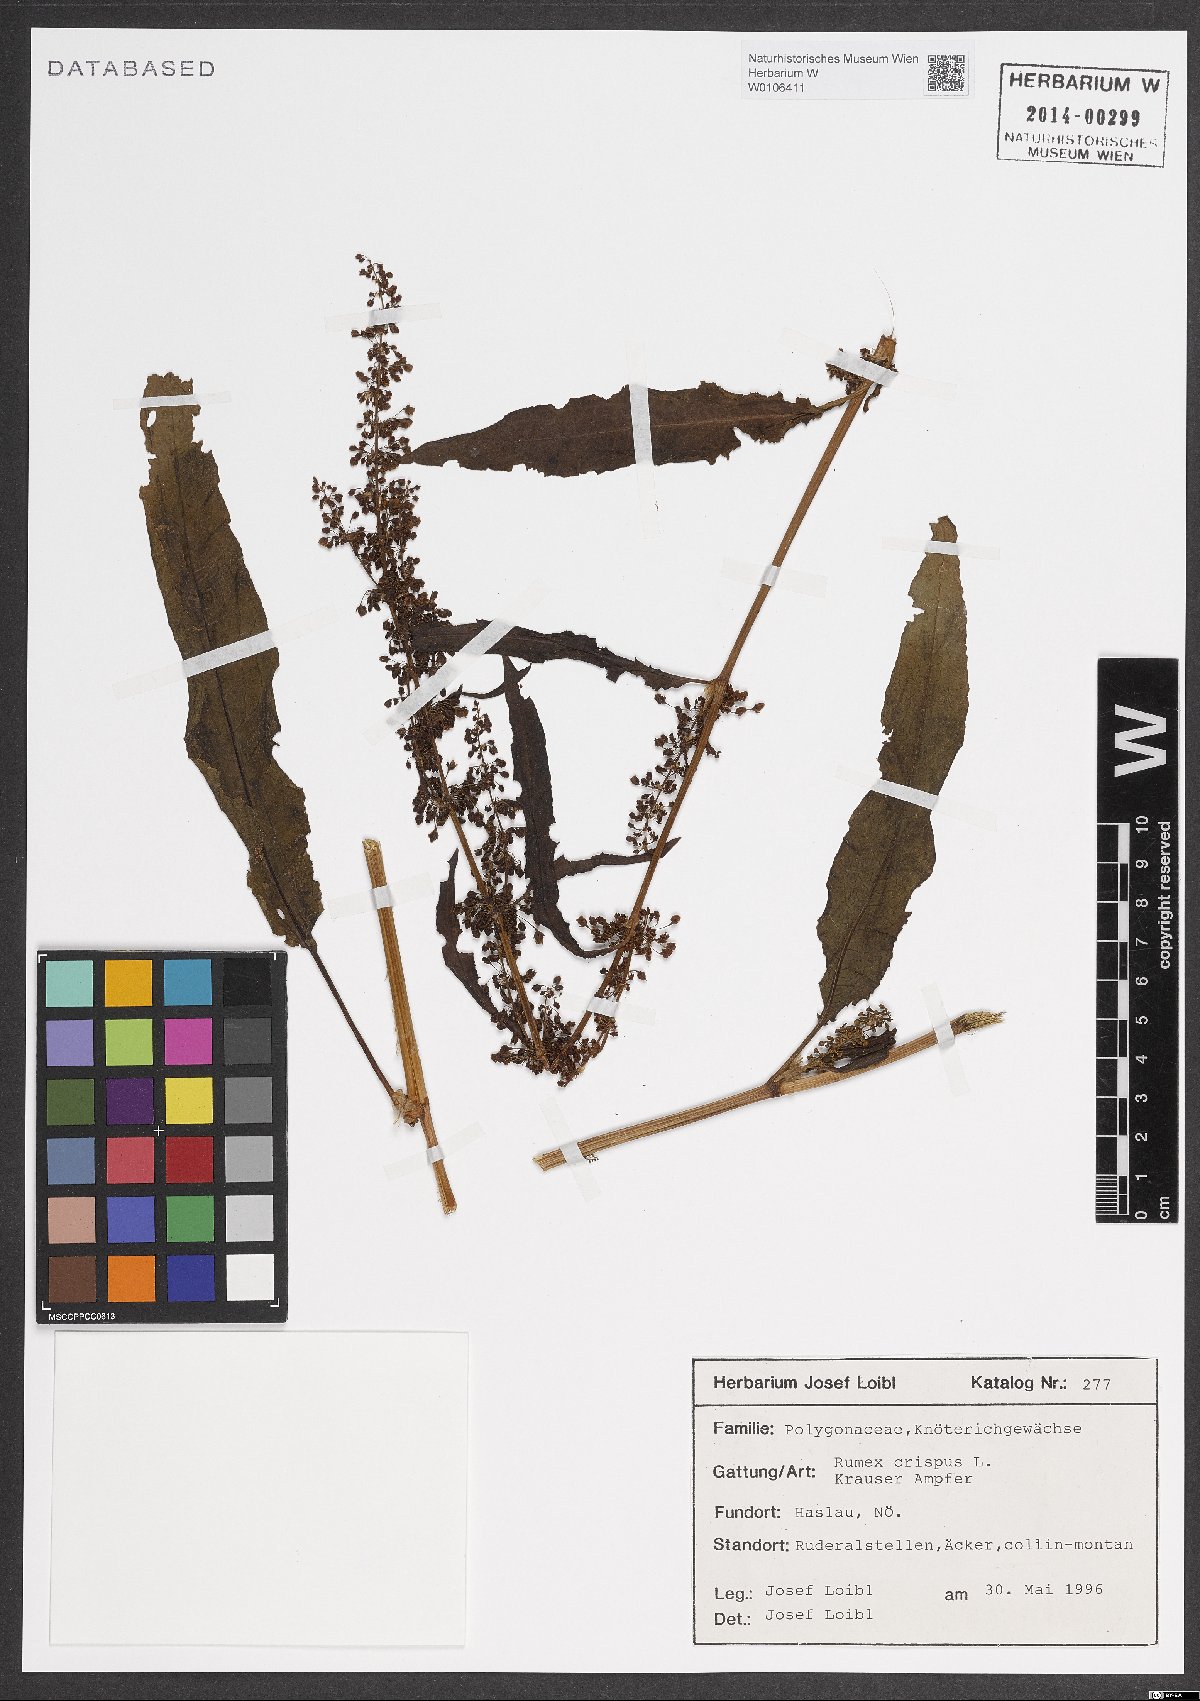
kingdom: Plantae
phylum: Tracheophyta
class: Magnoliopsida
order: Caryophyllales
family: Polygonaceae
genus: Rumex
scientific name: Rumex crispus
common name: Curled dock
